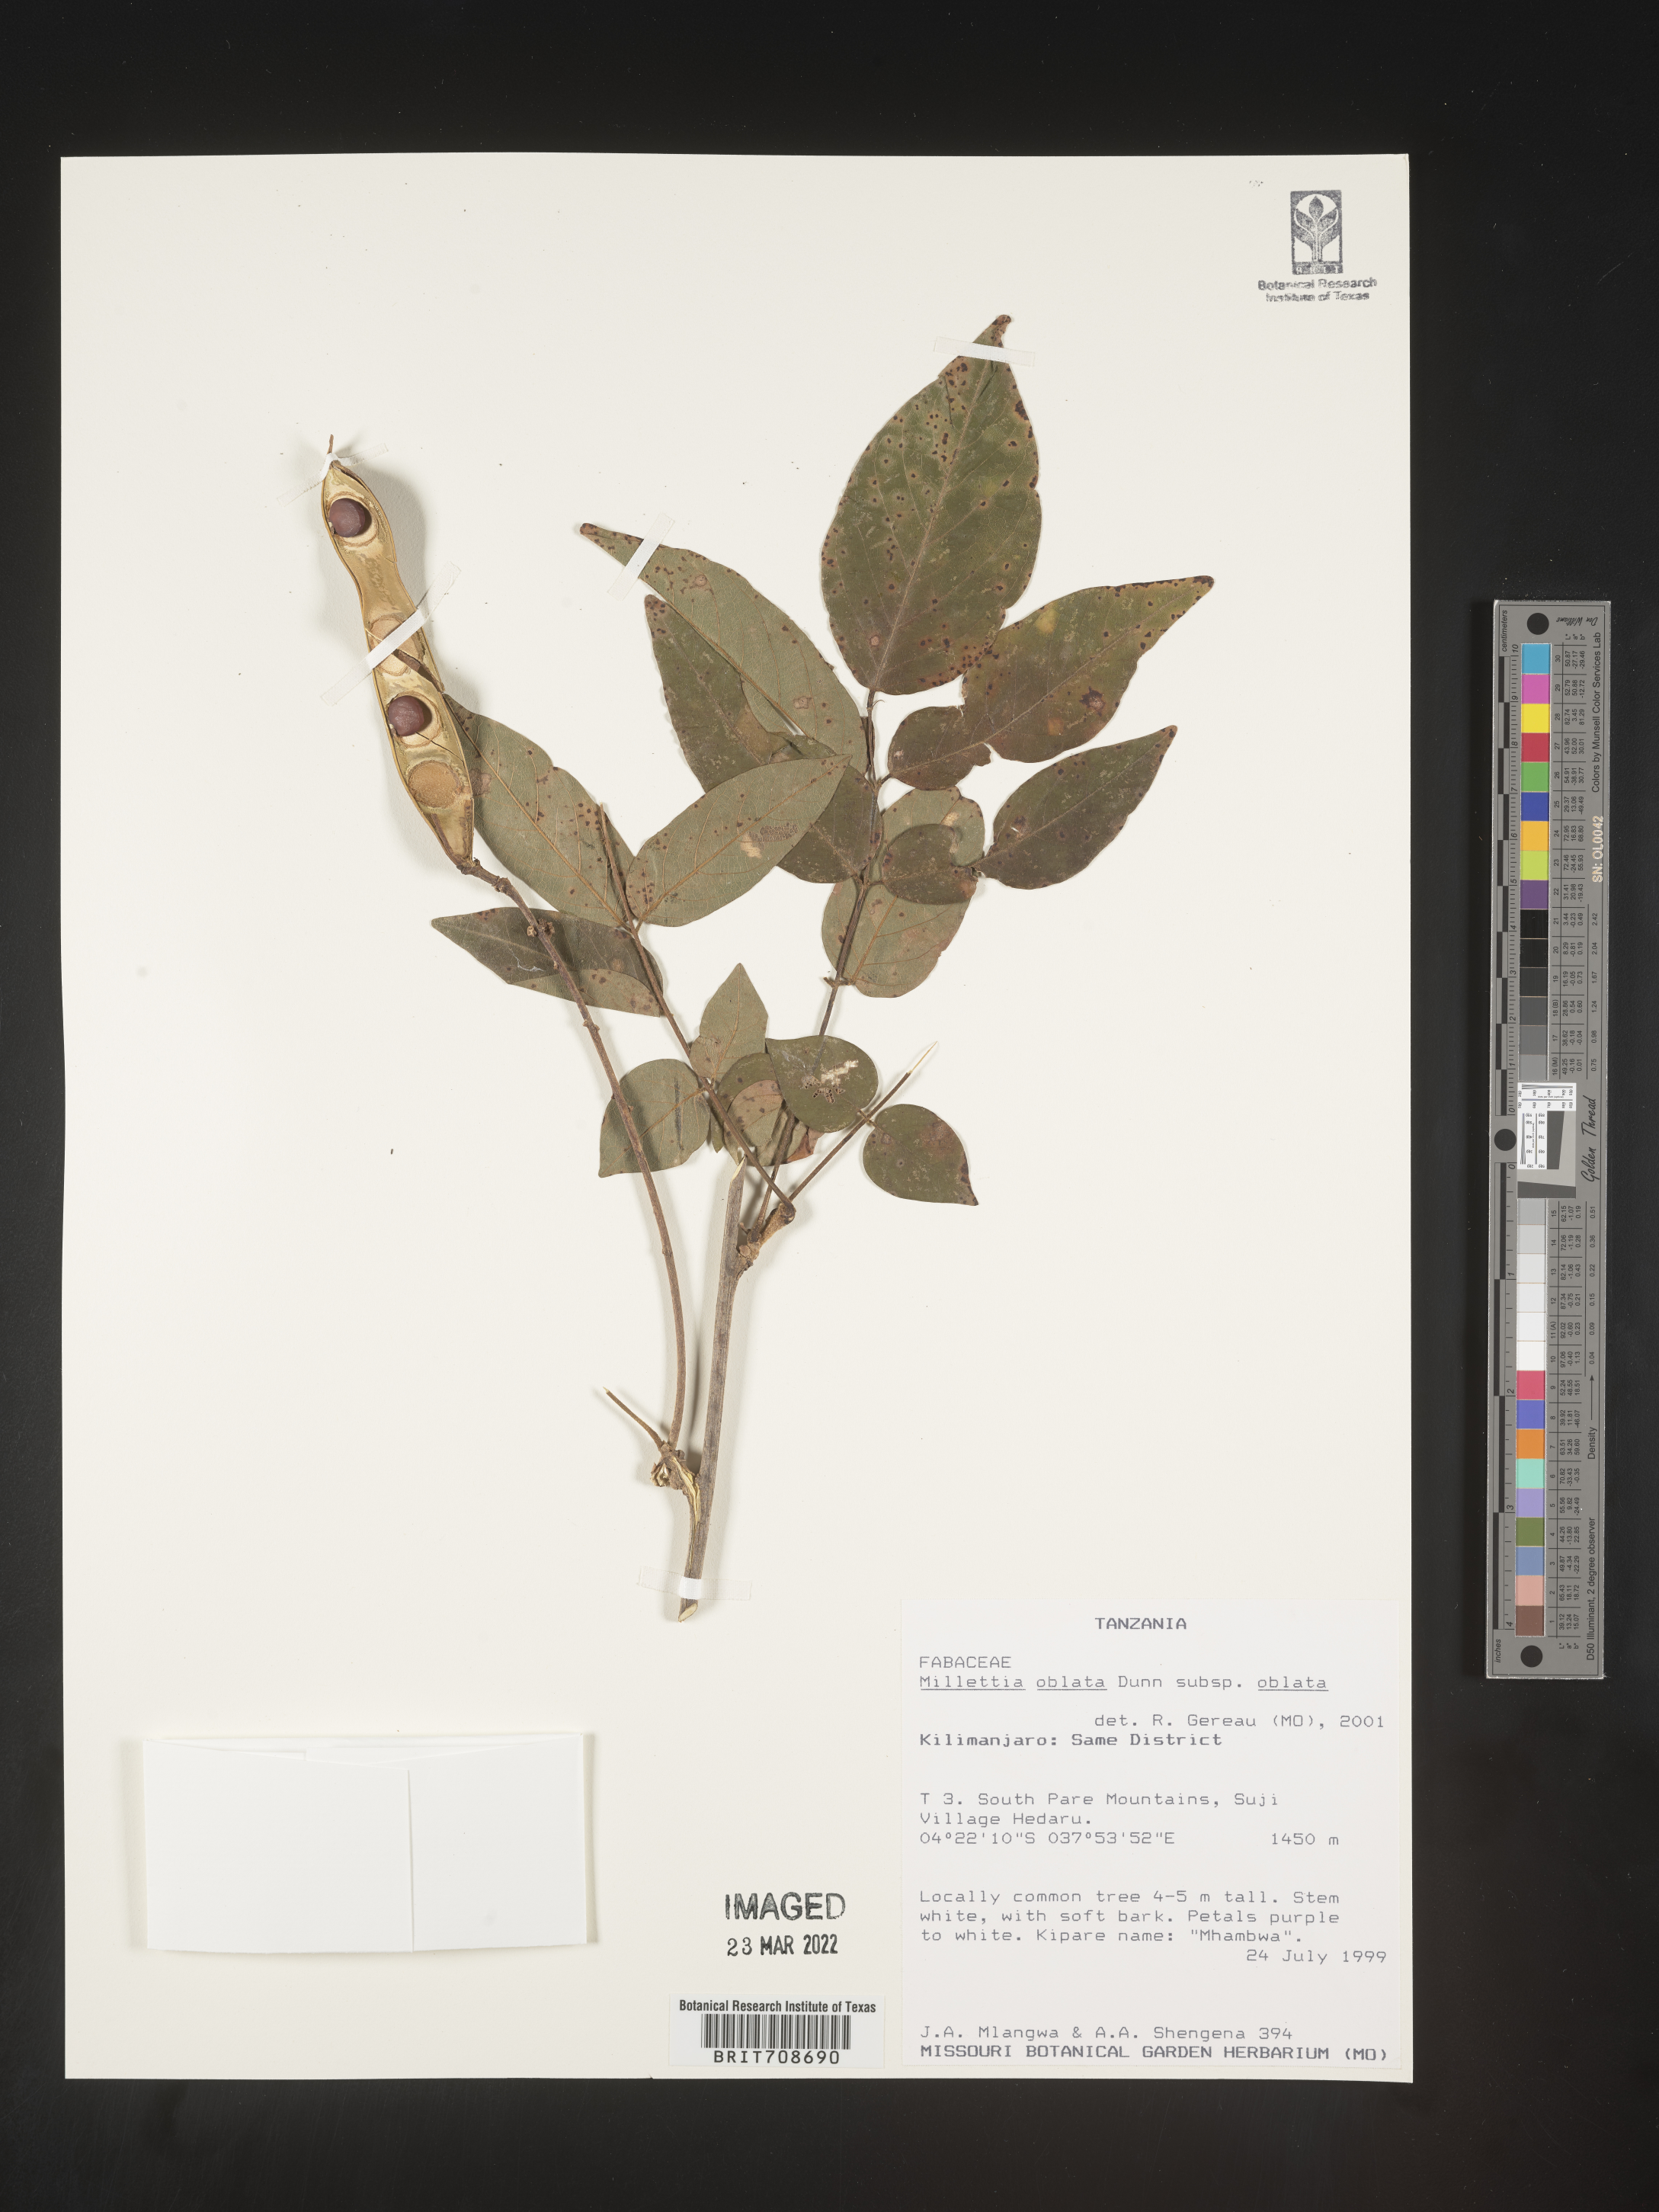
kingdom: Plantae
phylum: Tracheophyta
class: Magnoliopsida
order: Fabales
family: Fabaceae
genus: Millettia
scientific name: Millettia
